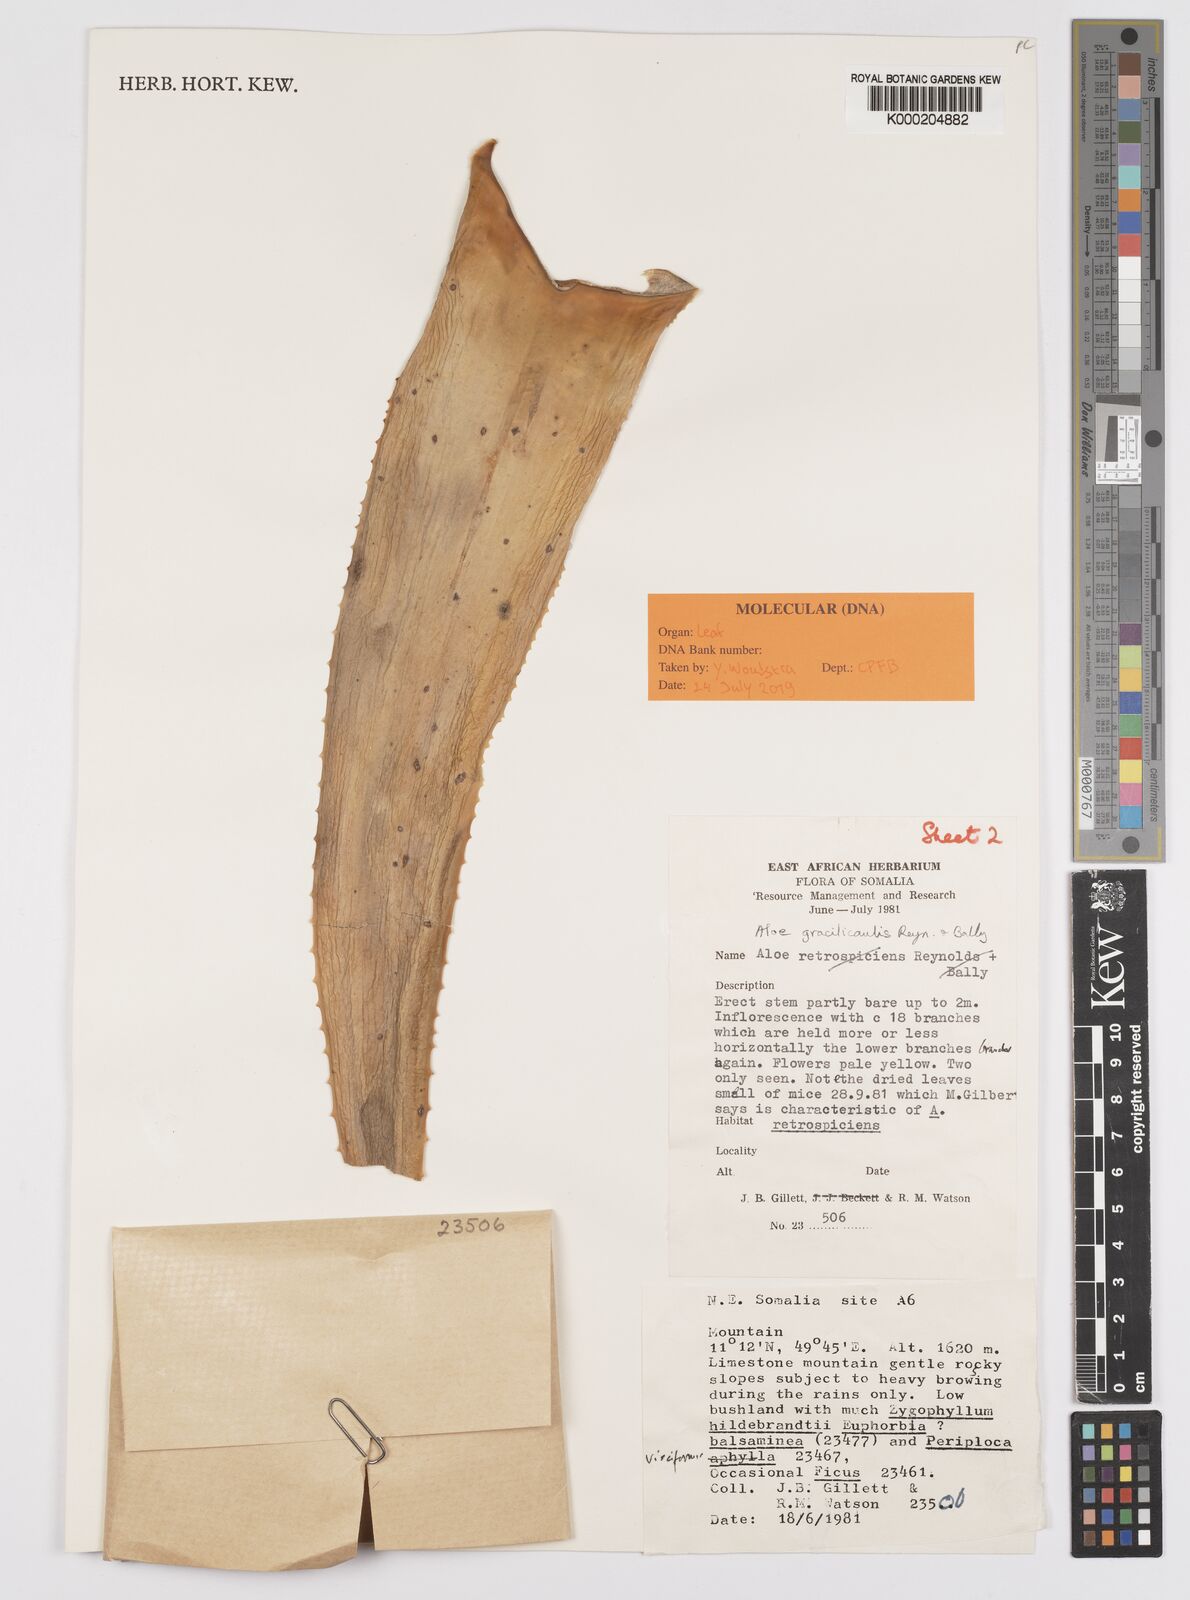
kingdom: Plantae
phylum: Tracheophyta
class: Liliopsida
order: Asparagales
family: Asphodelaceae
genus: Aloe
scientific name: Aloe miskatana
